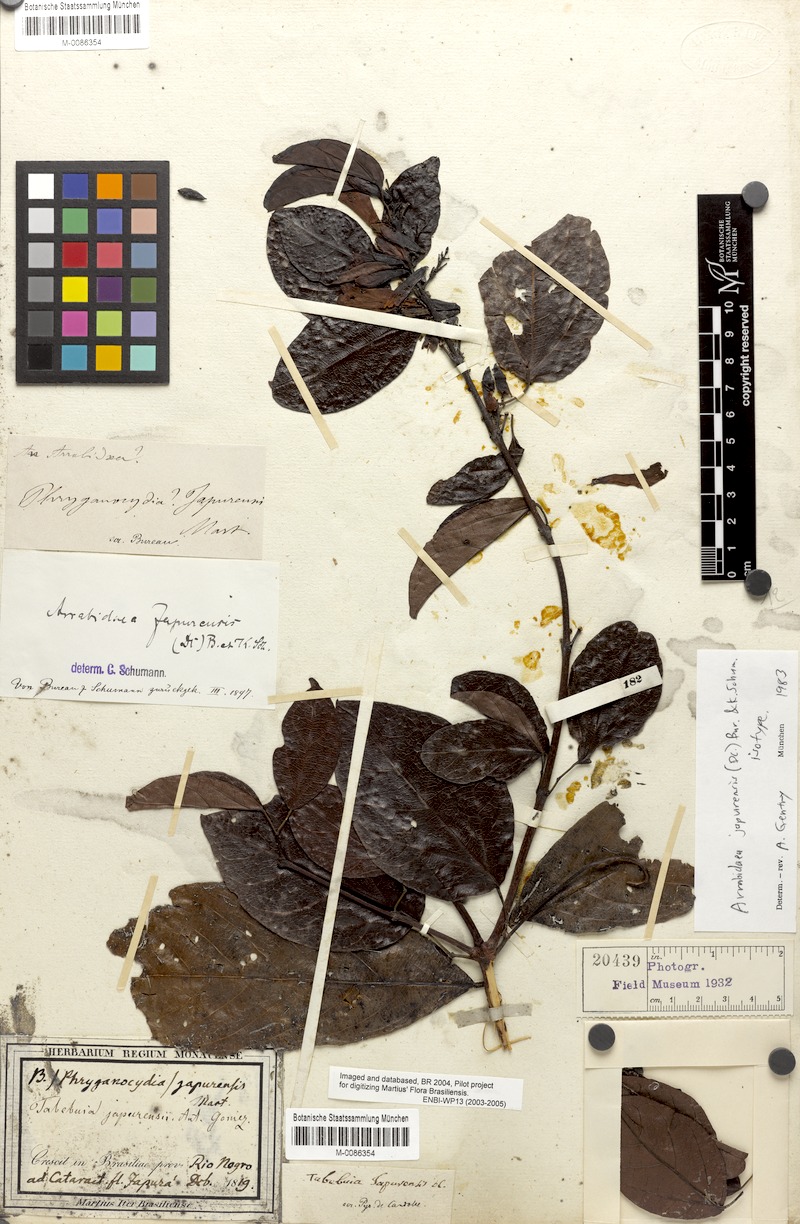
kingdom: Plantae
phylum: Tracheophyta
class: Magnoliopsida
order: Lamiales
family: Bignoniaceae
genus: Fridericia
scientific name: Fridericia japurensis
